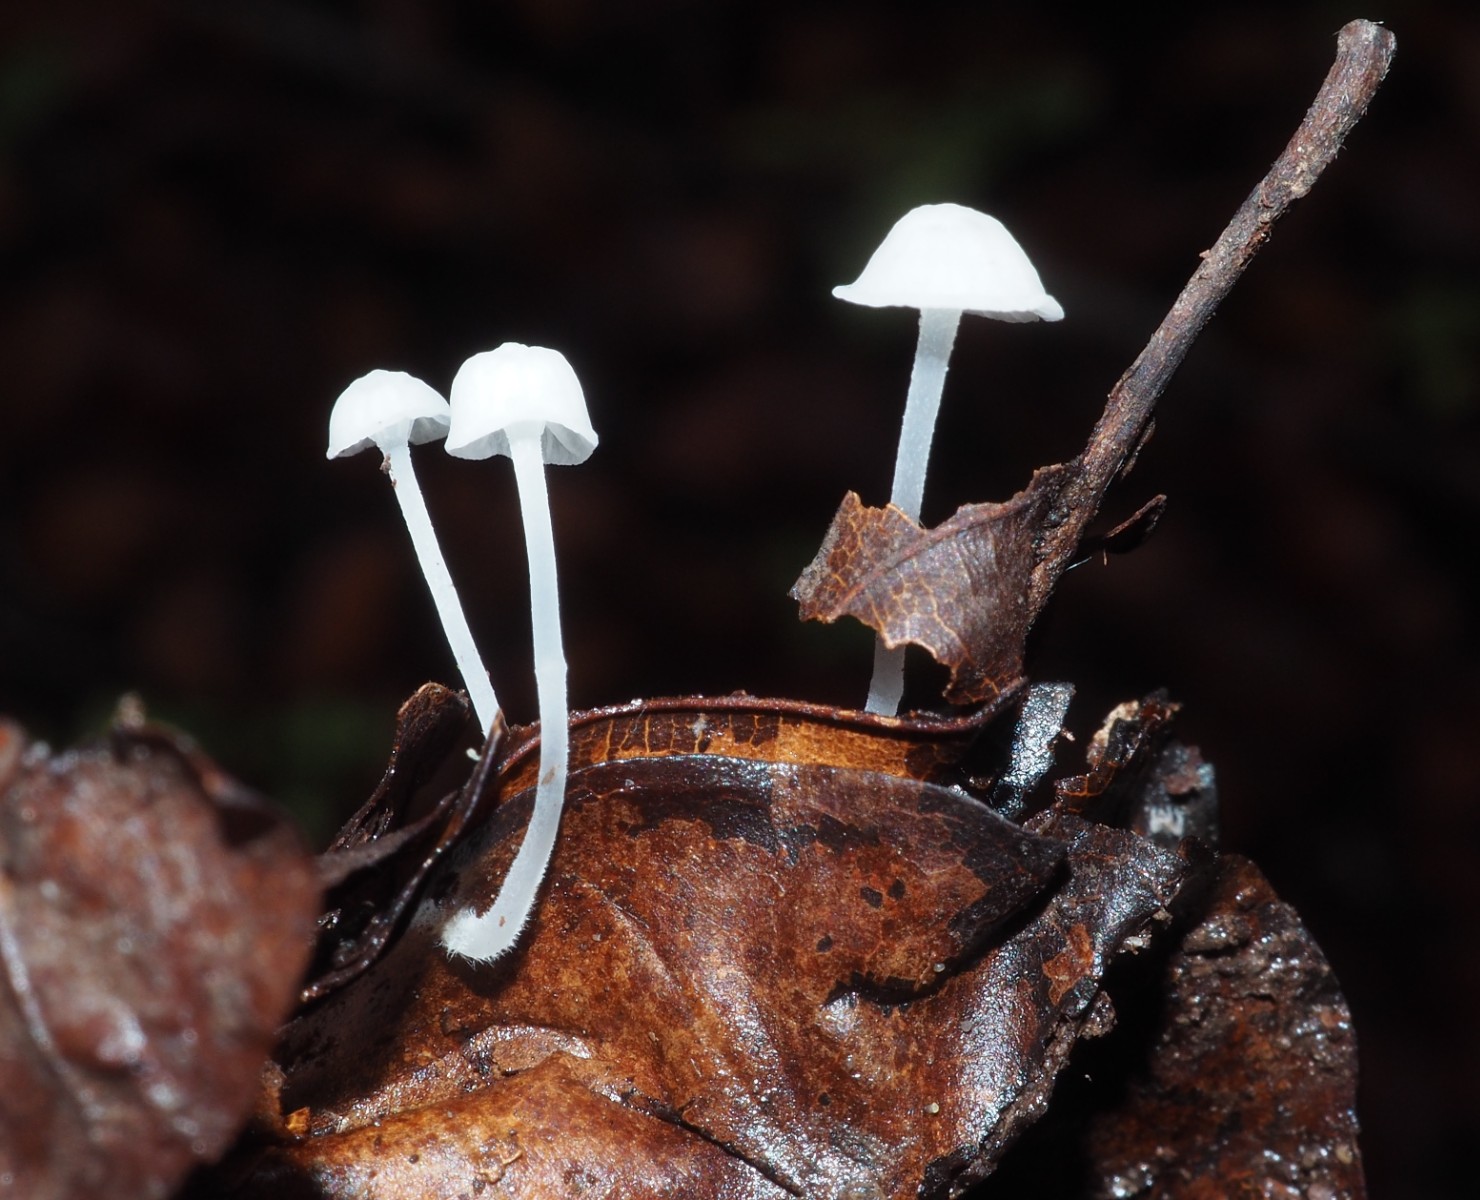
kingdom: Fungi
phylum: Basidiomycota
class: Agaricomycetes
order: Agaricales
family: Mycenaceae
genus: Hemimycena
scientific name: Hemimycena
